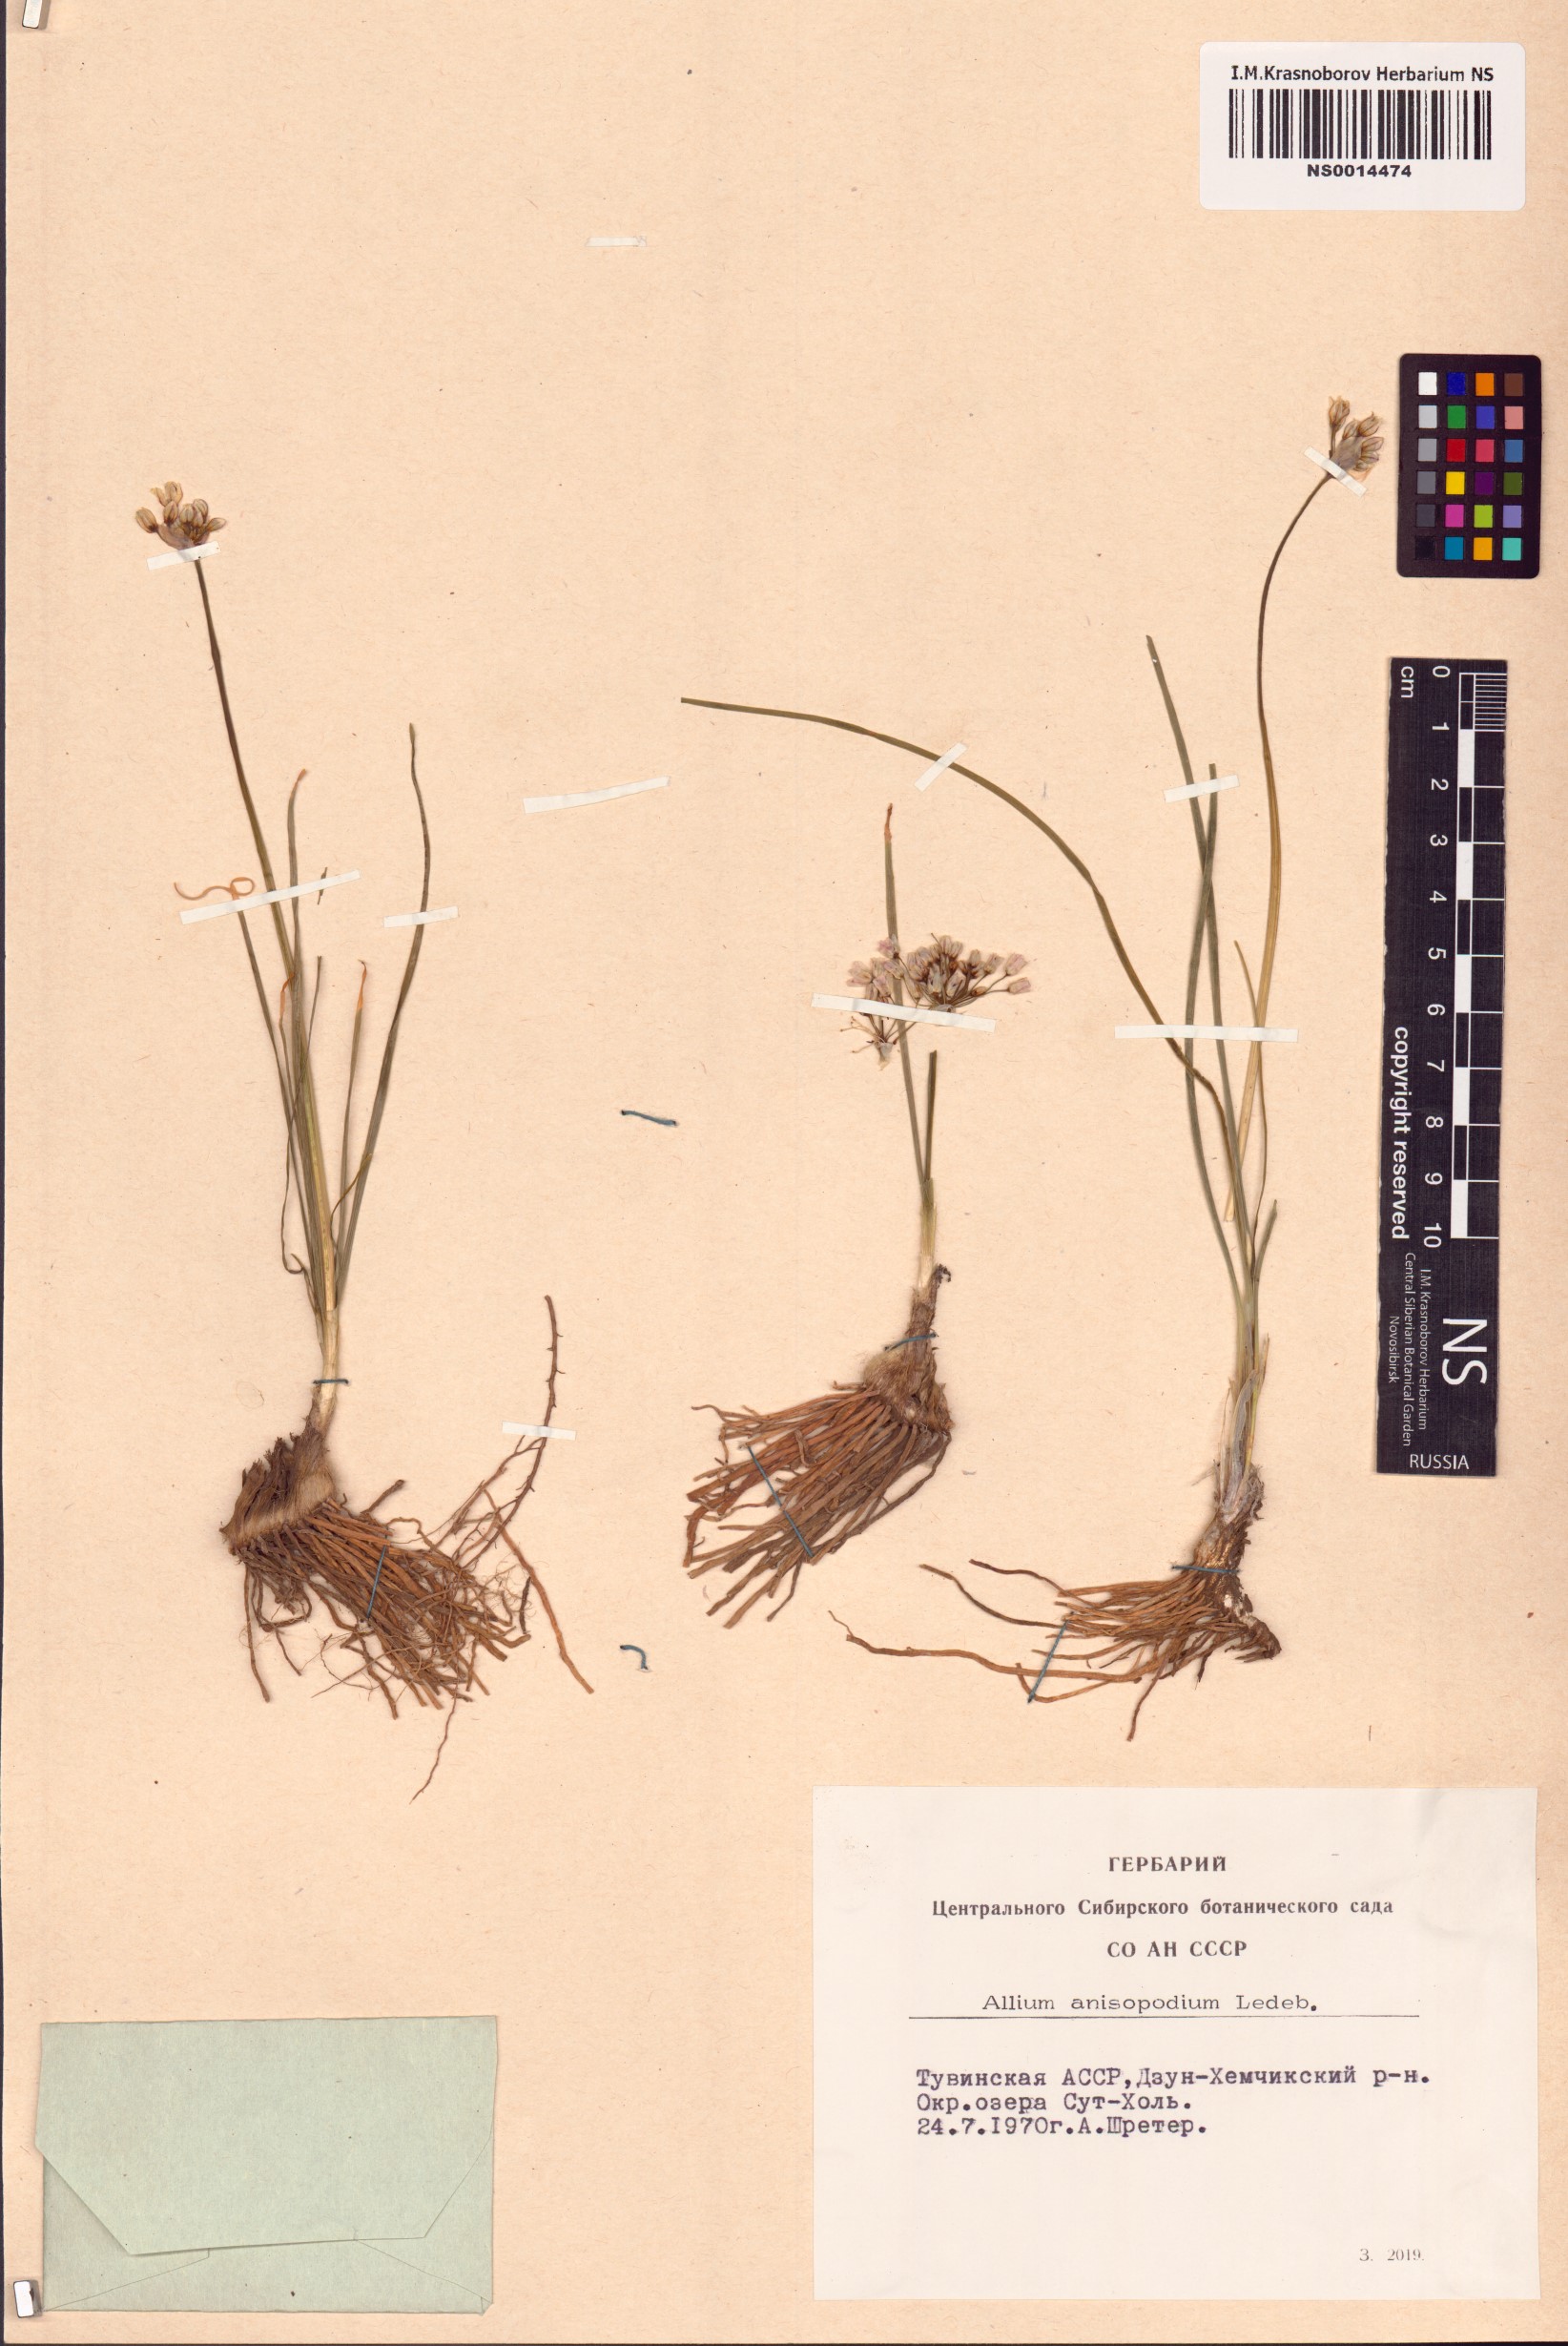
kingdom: Plantae
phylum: Tracheophyta
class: Liliopsida
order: Asparagales
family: Amaryllidaceae
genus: Allium
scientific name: Allium anisopodium
